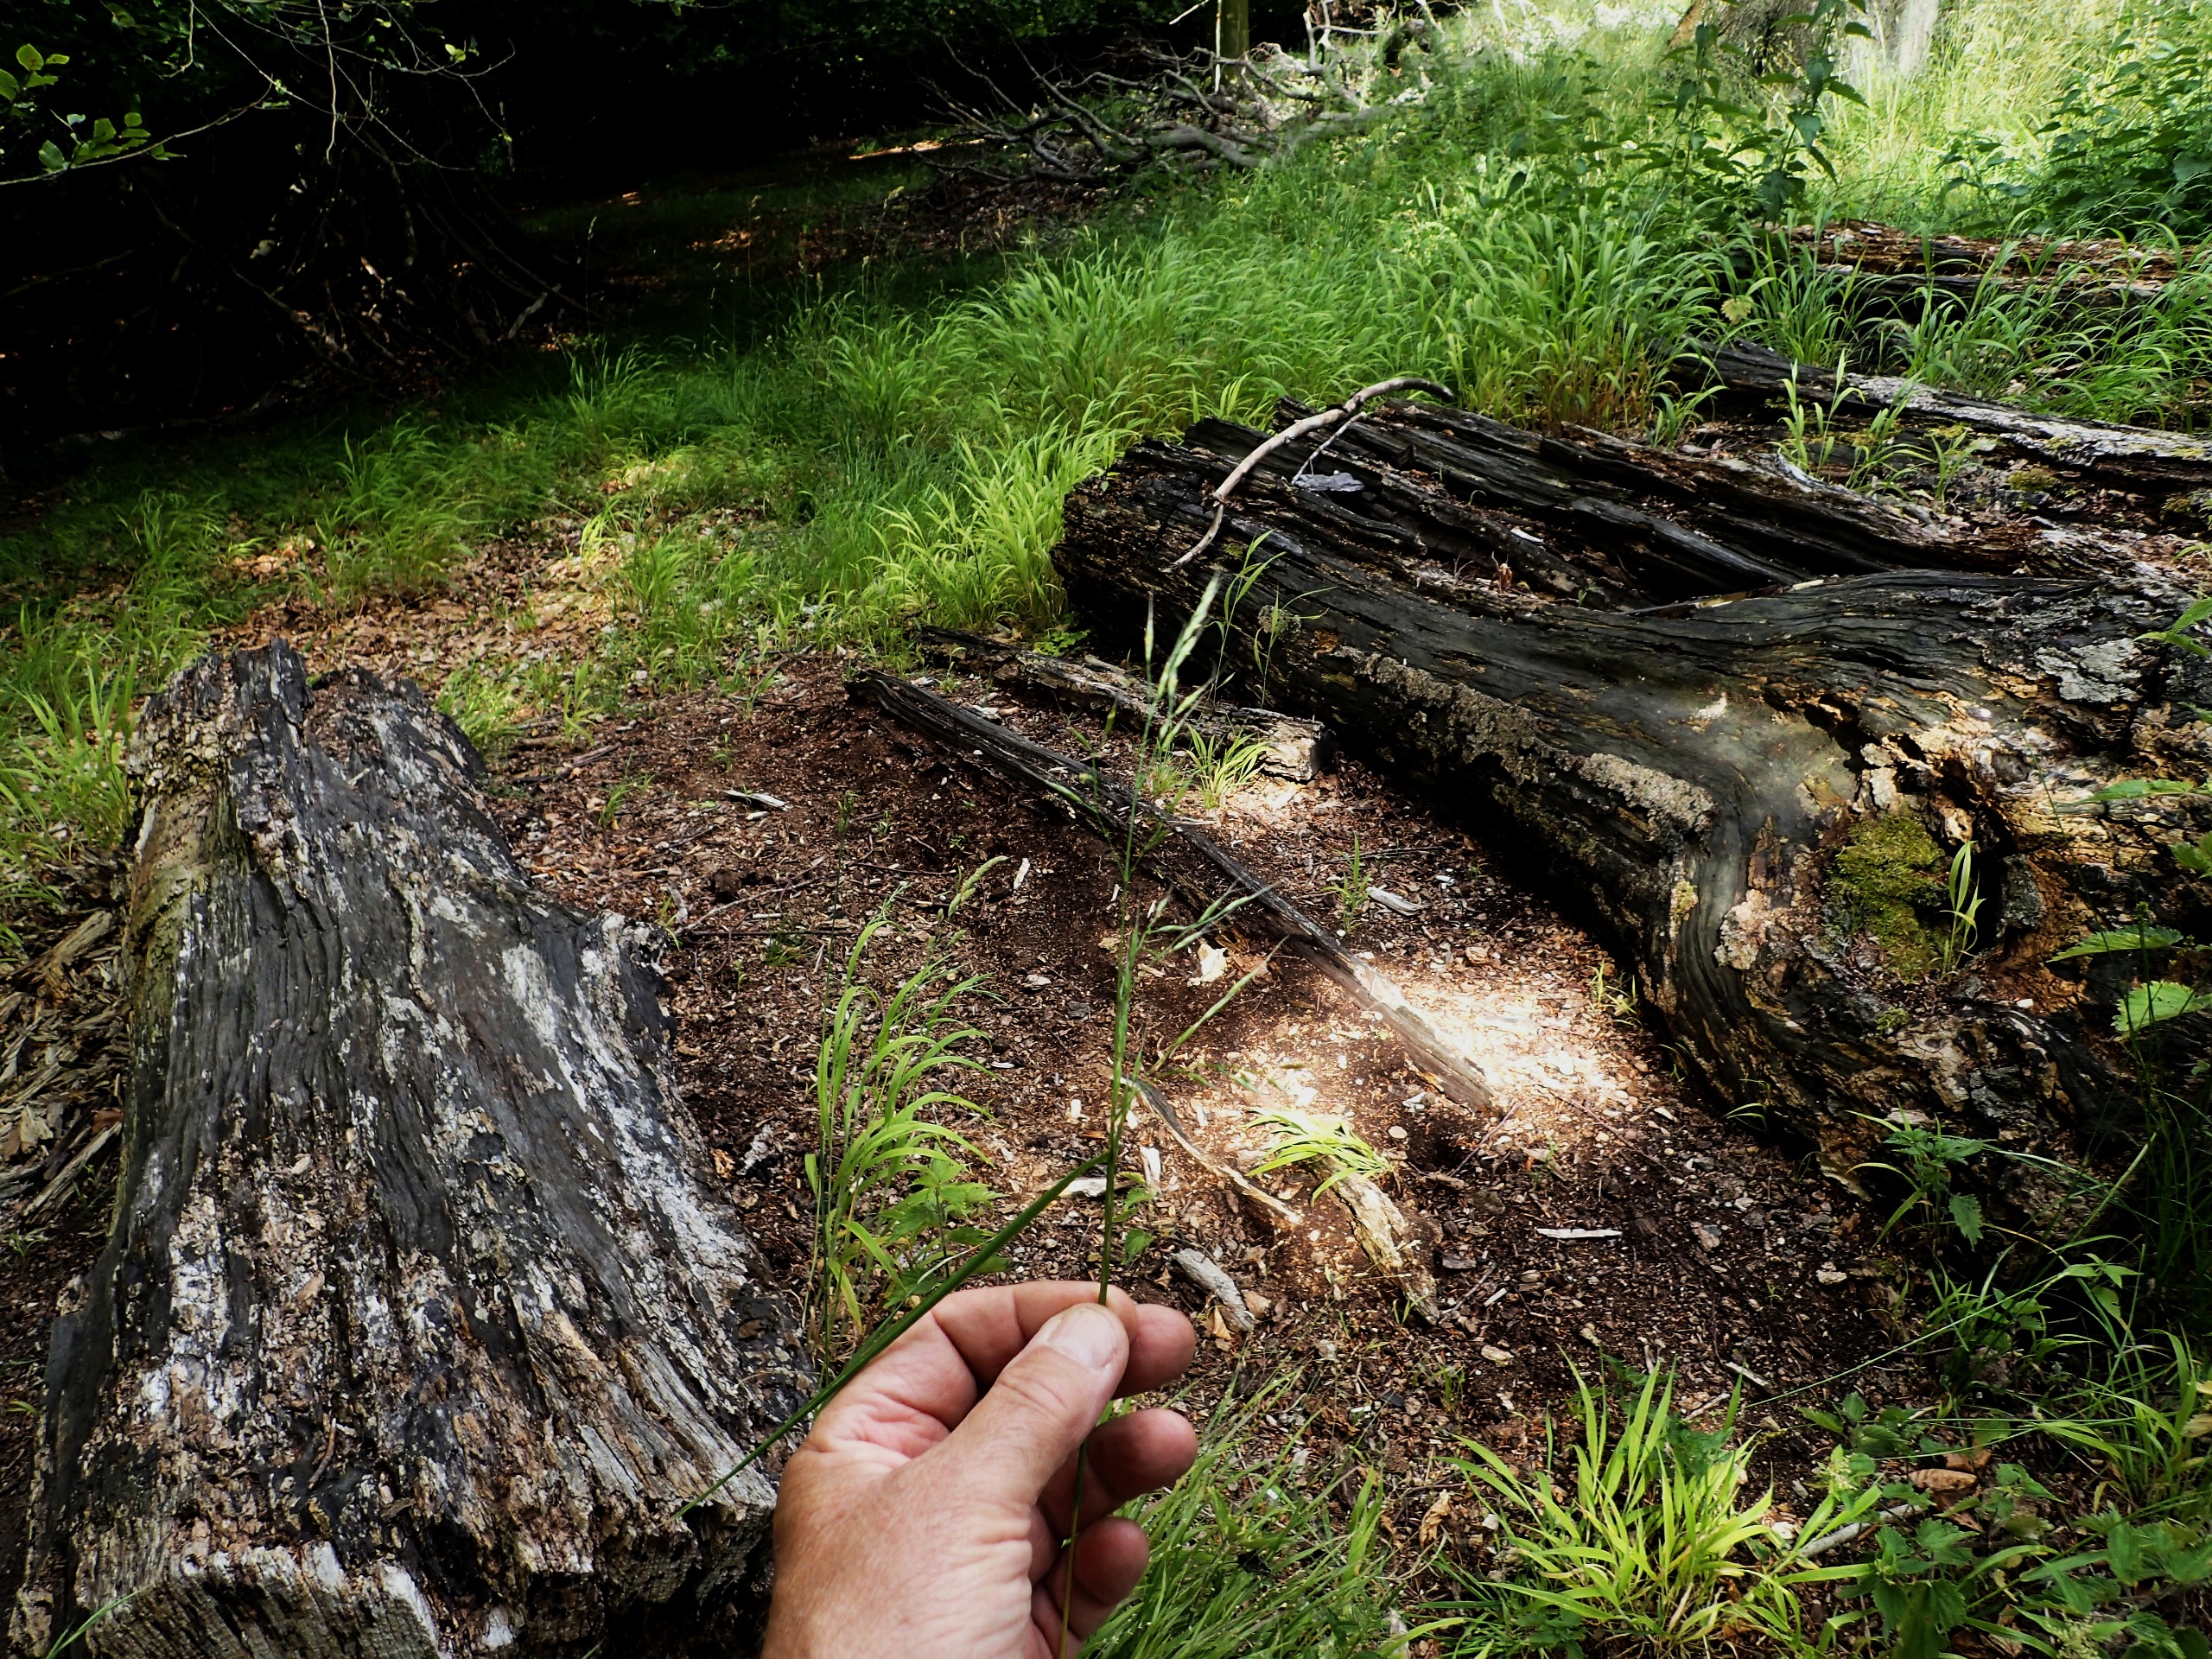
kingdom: Plantae
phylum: Tracheophyta
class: Liliopsida
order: Poales
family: Poaceae
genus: Lolium
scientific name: Lolium giganteum
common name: Kæmpe-svingel
